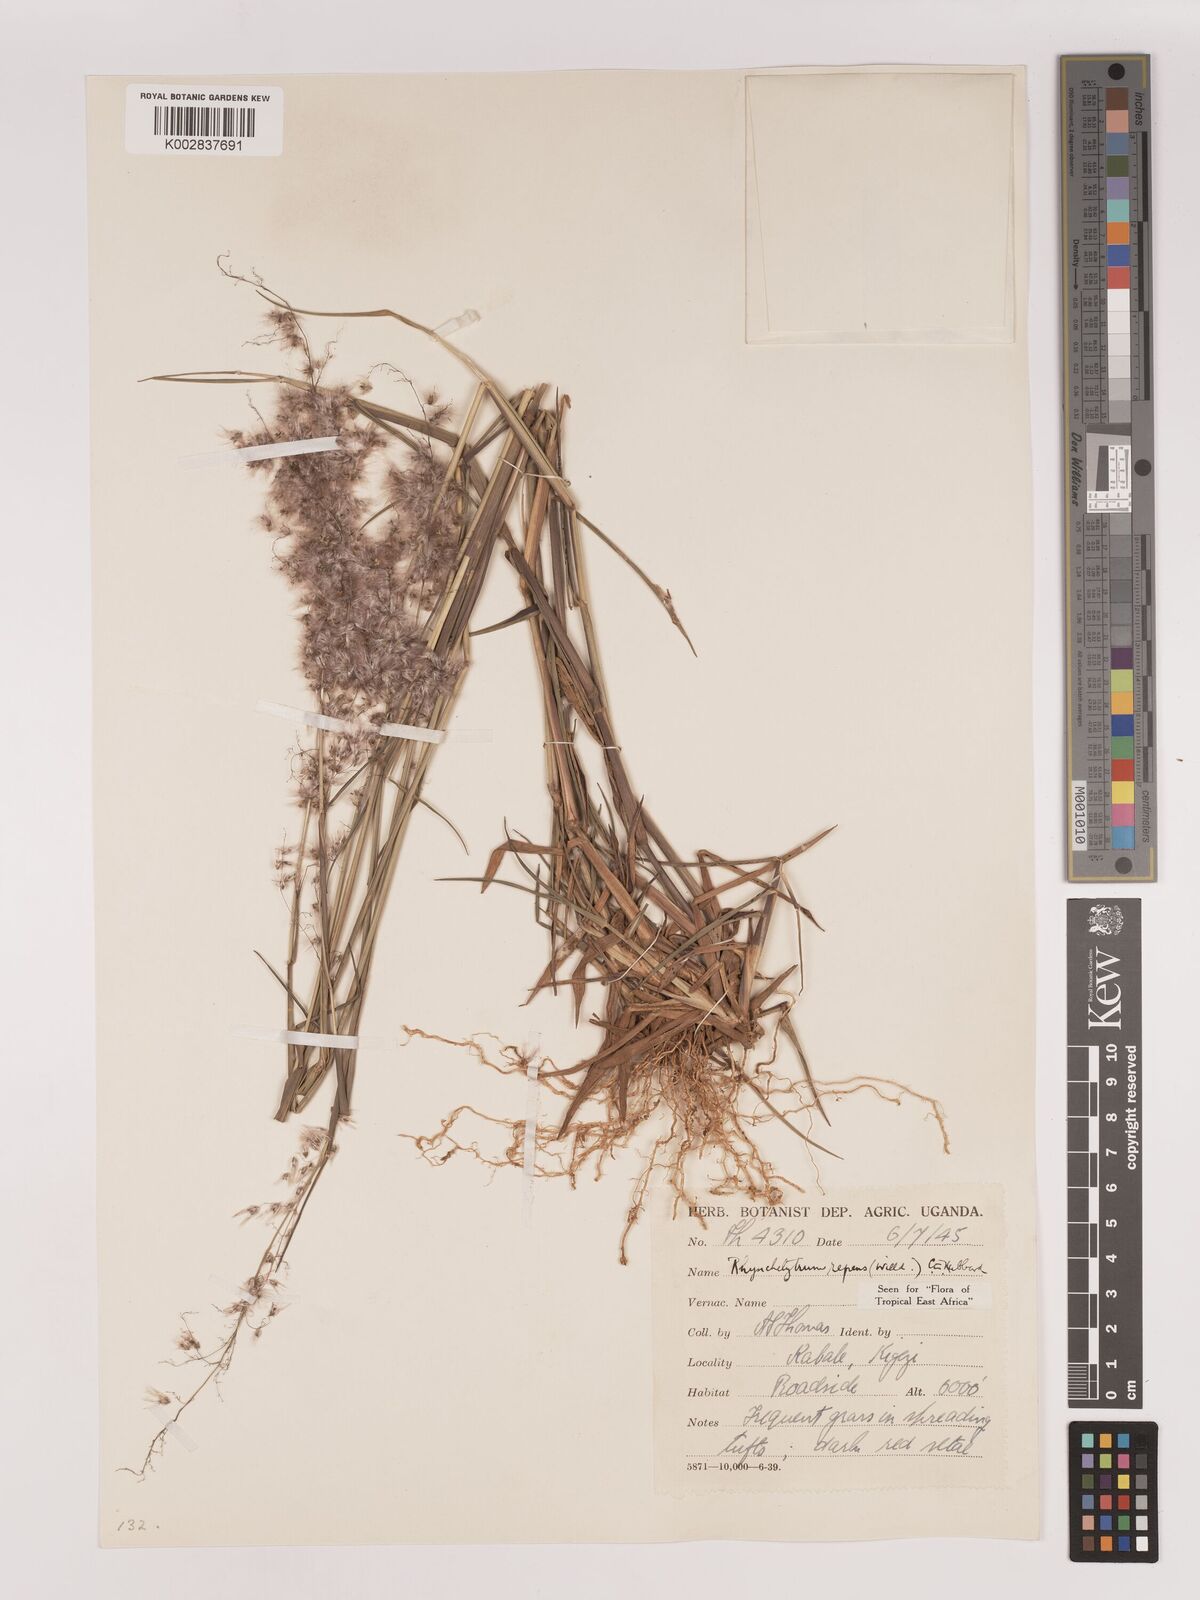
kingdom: Plantae
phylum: Tracheophyta
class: Liliopsida
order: Poales
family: Poaceae
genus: Melinis
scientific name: Melinis repens
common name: Rose natal grass
